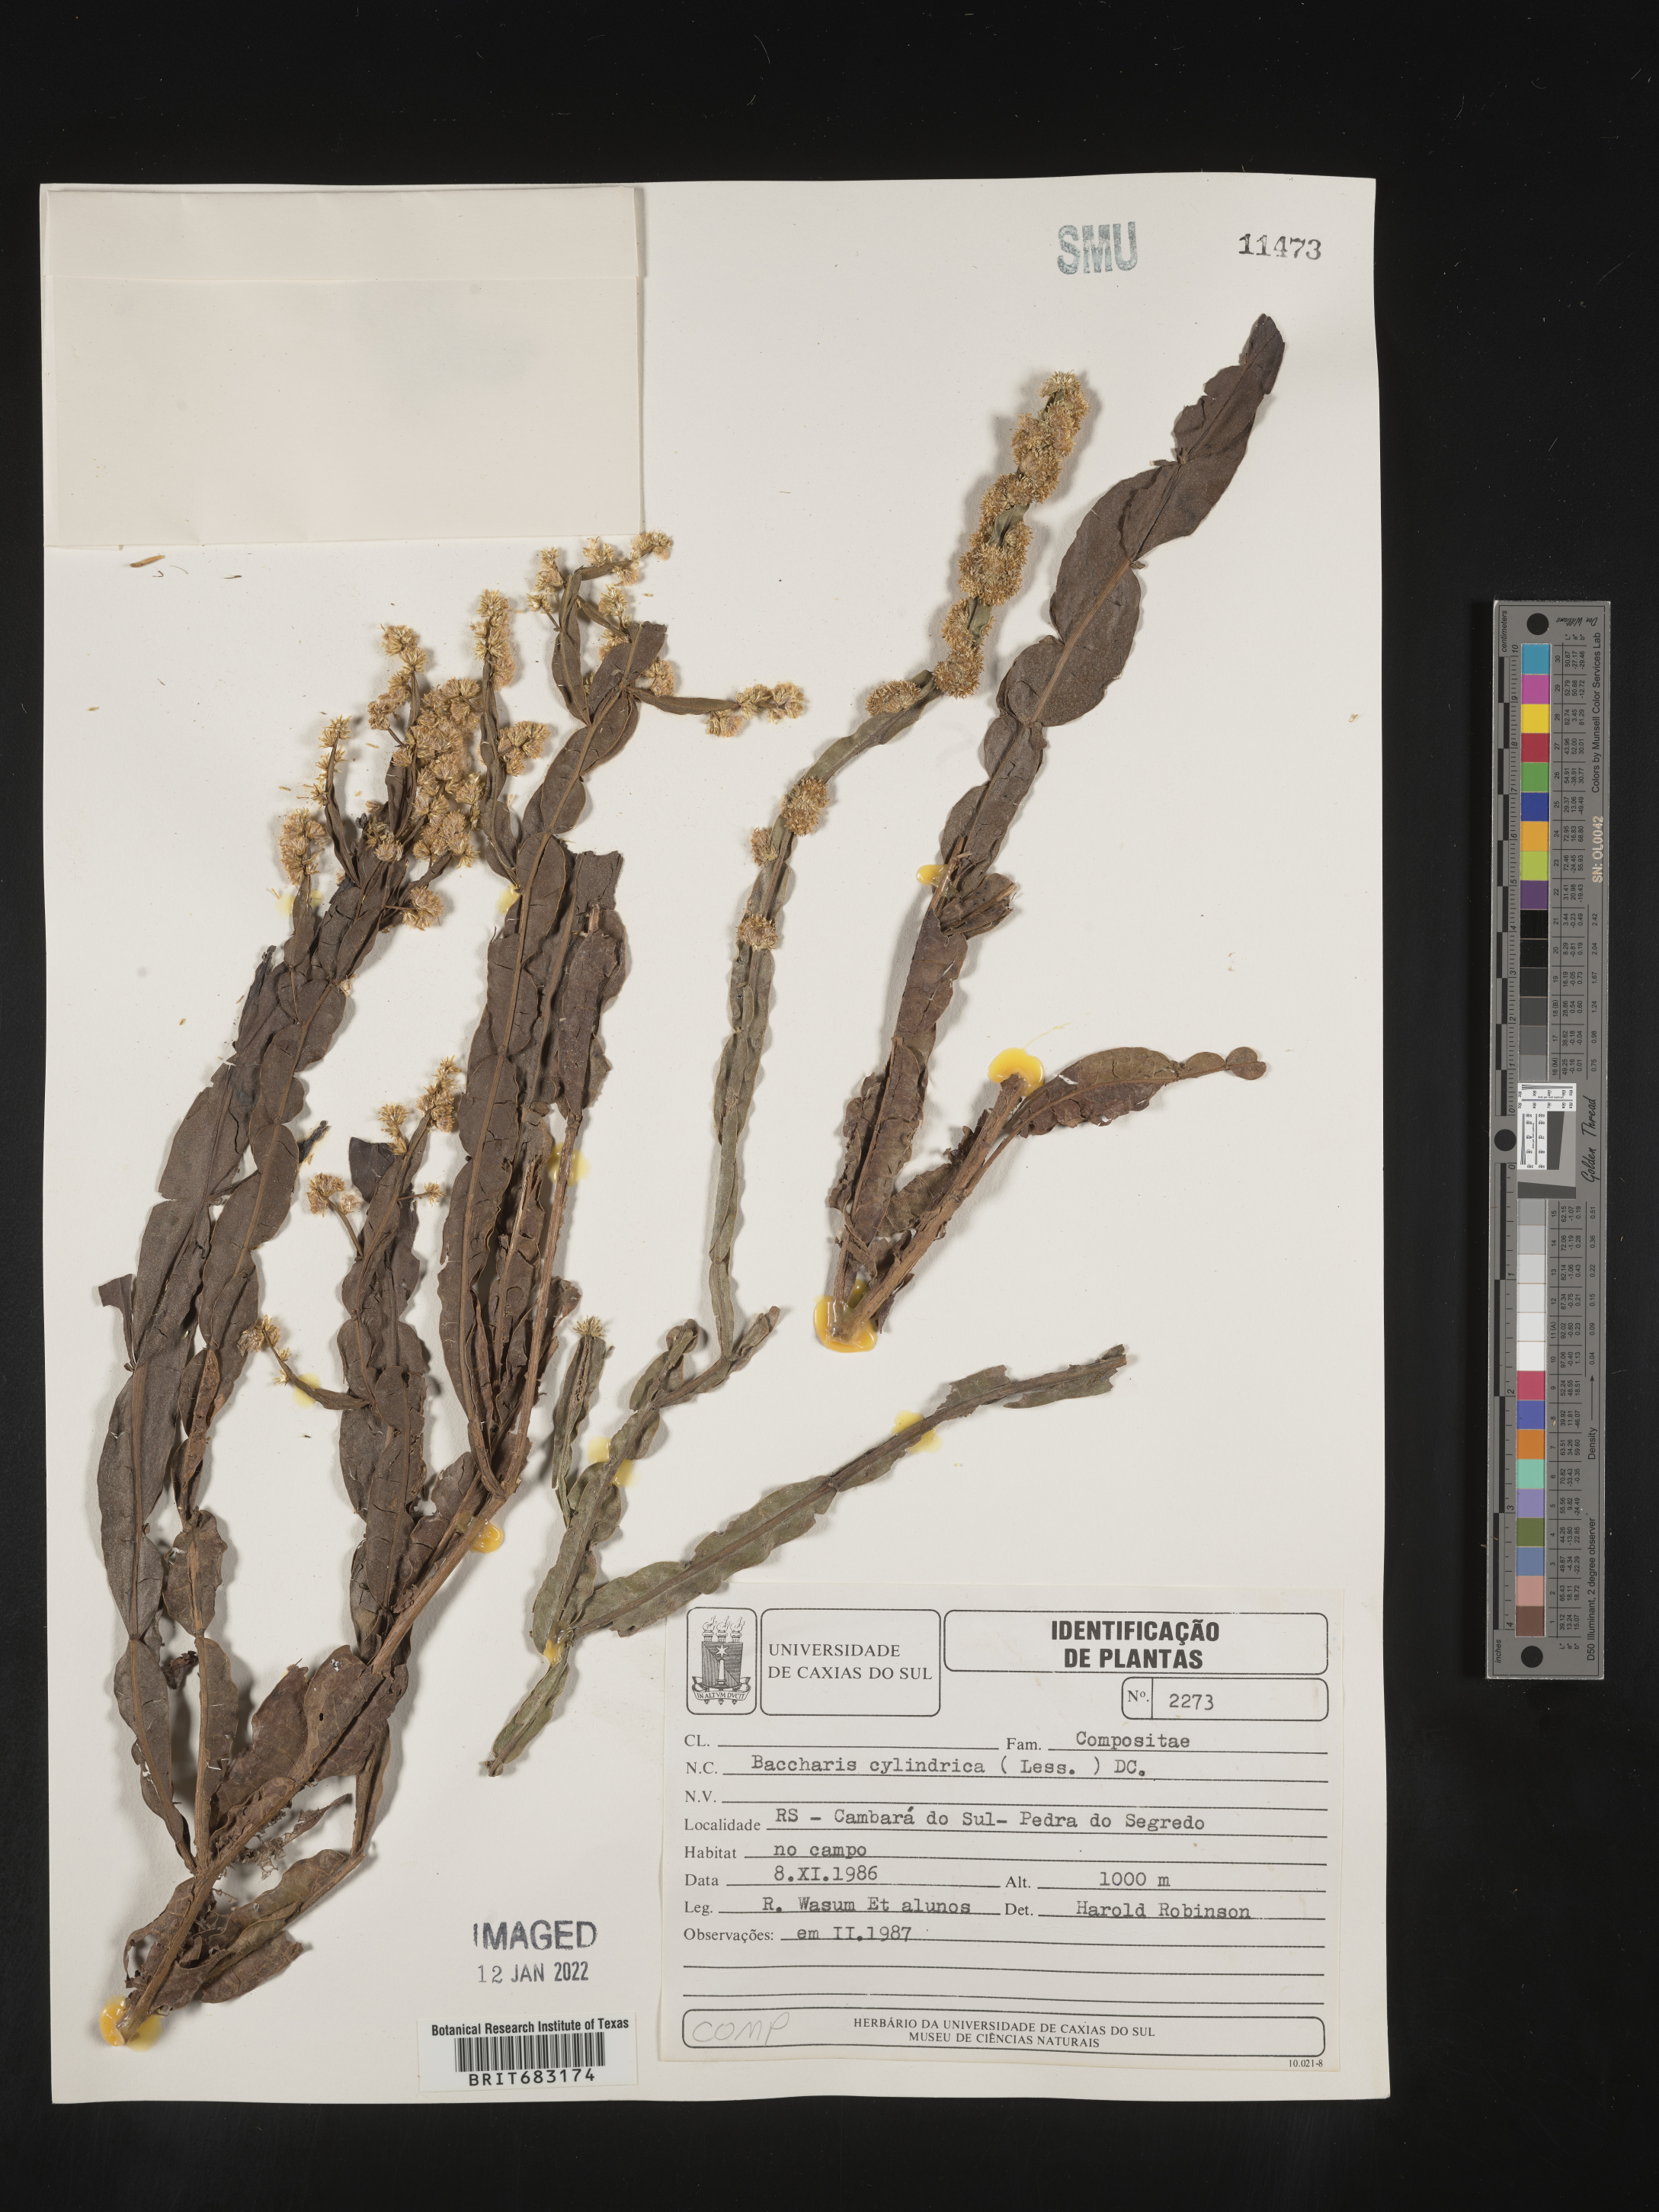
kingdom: Plantae
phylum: Tracheophyta
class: Magnoliopsida
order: Asterales
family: Asteraceae
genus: Baccharis
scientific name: Baccharis
